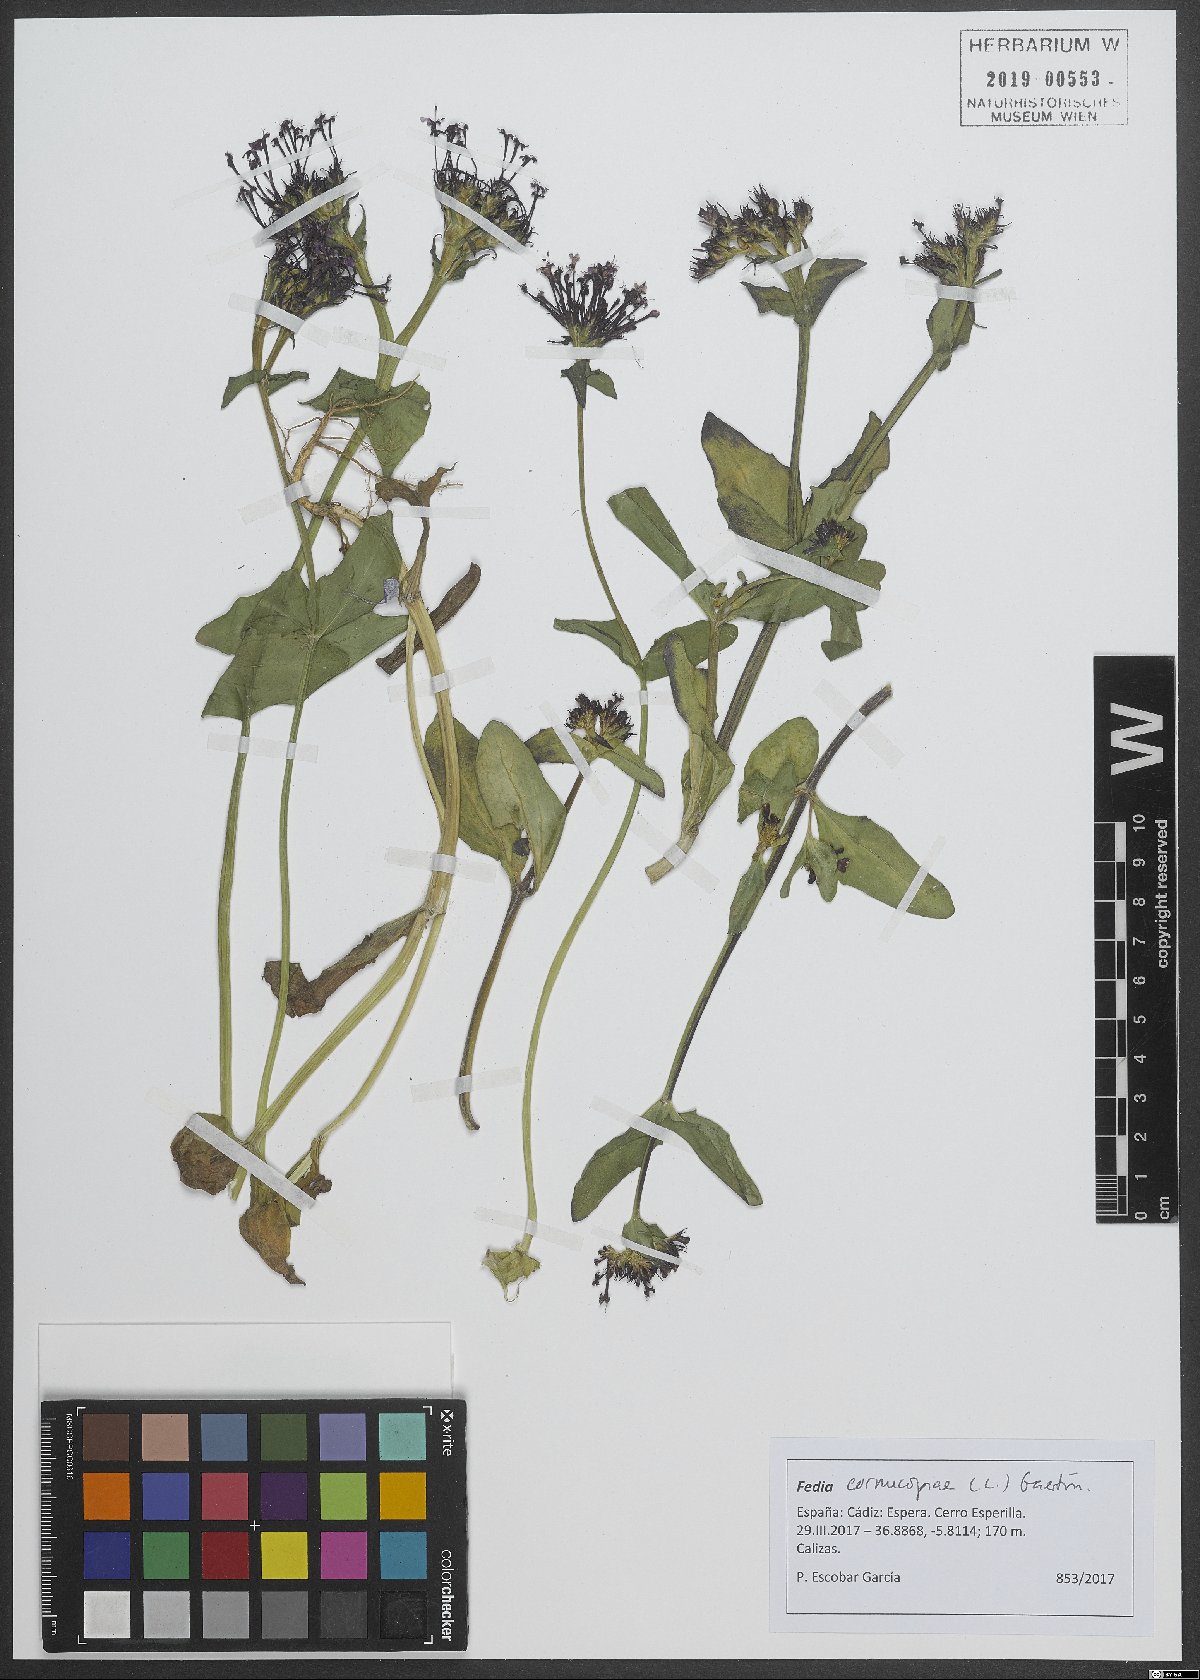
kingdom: Plantae
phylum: Tracheophyta
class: Magnoliopsida
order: Dipsacales
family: Caprifoliaceae
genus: Fedia
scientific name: Fedia cornucopiae
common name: Horn-of-plenty
